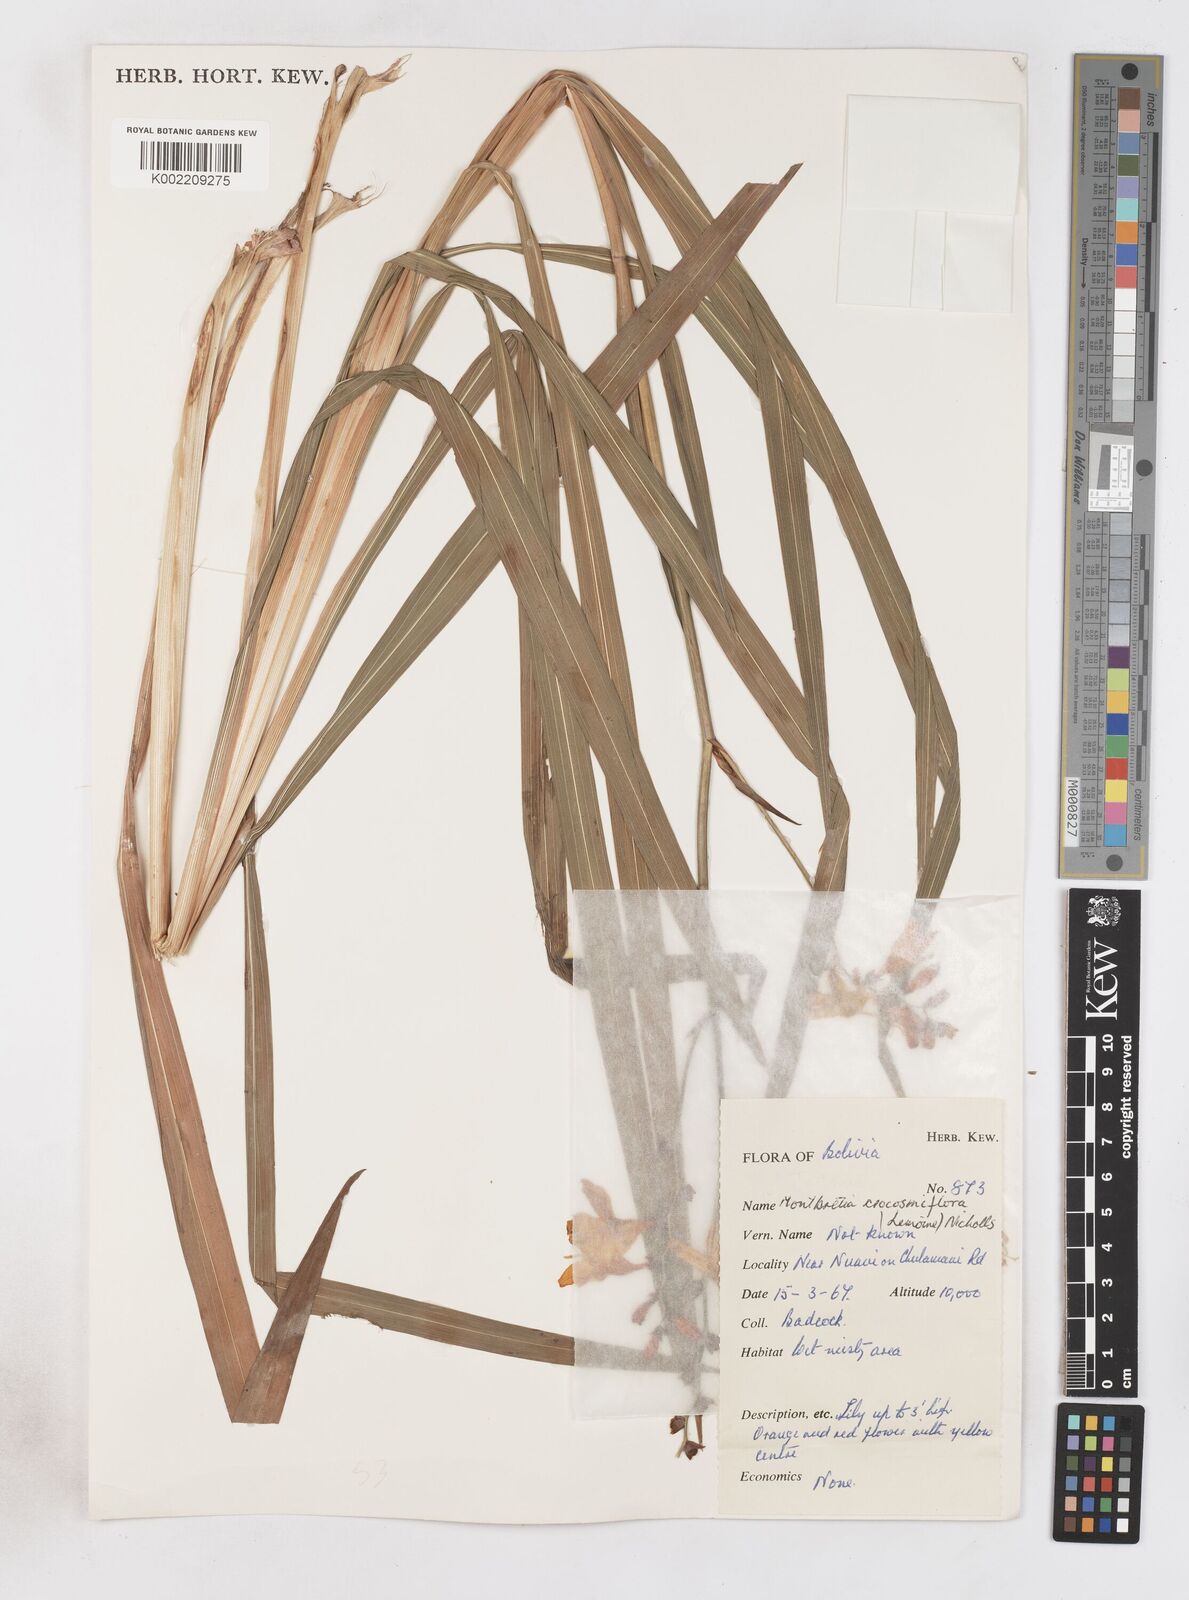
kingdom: Plantae
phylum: Tracheophyta
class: Liliopsida
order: Asparagales
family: Iridaceae
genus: Crocosmia
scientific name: Crocosmia crocosmiiflora
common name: Montbretia
